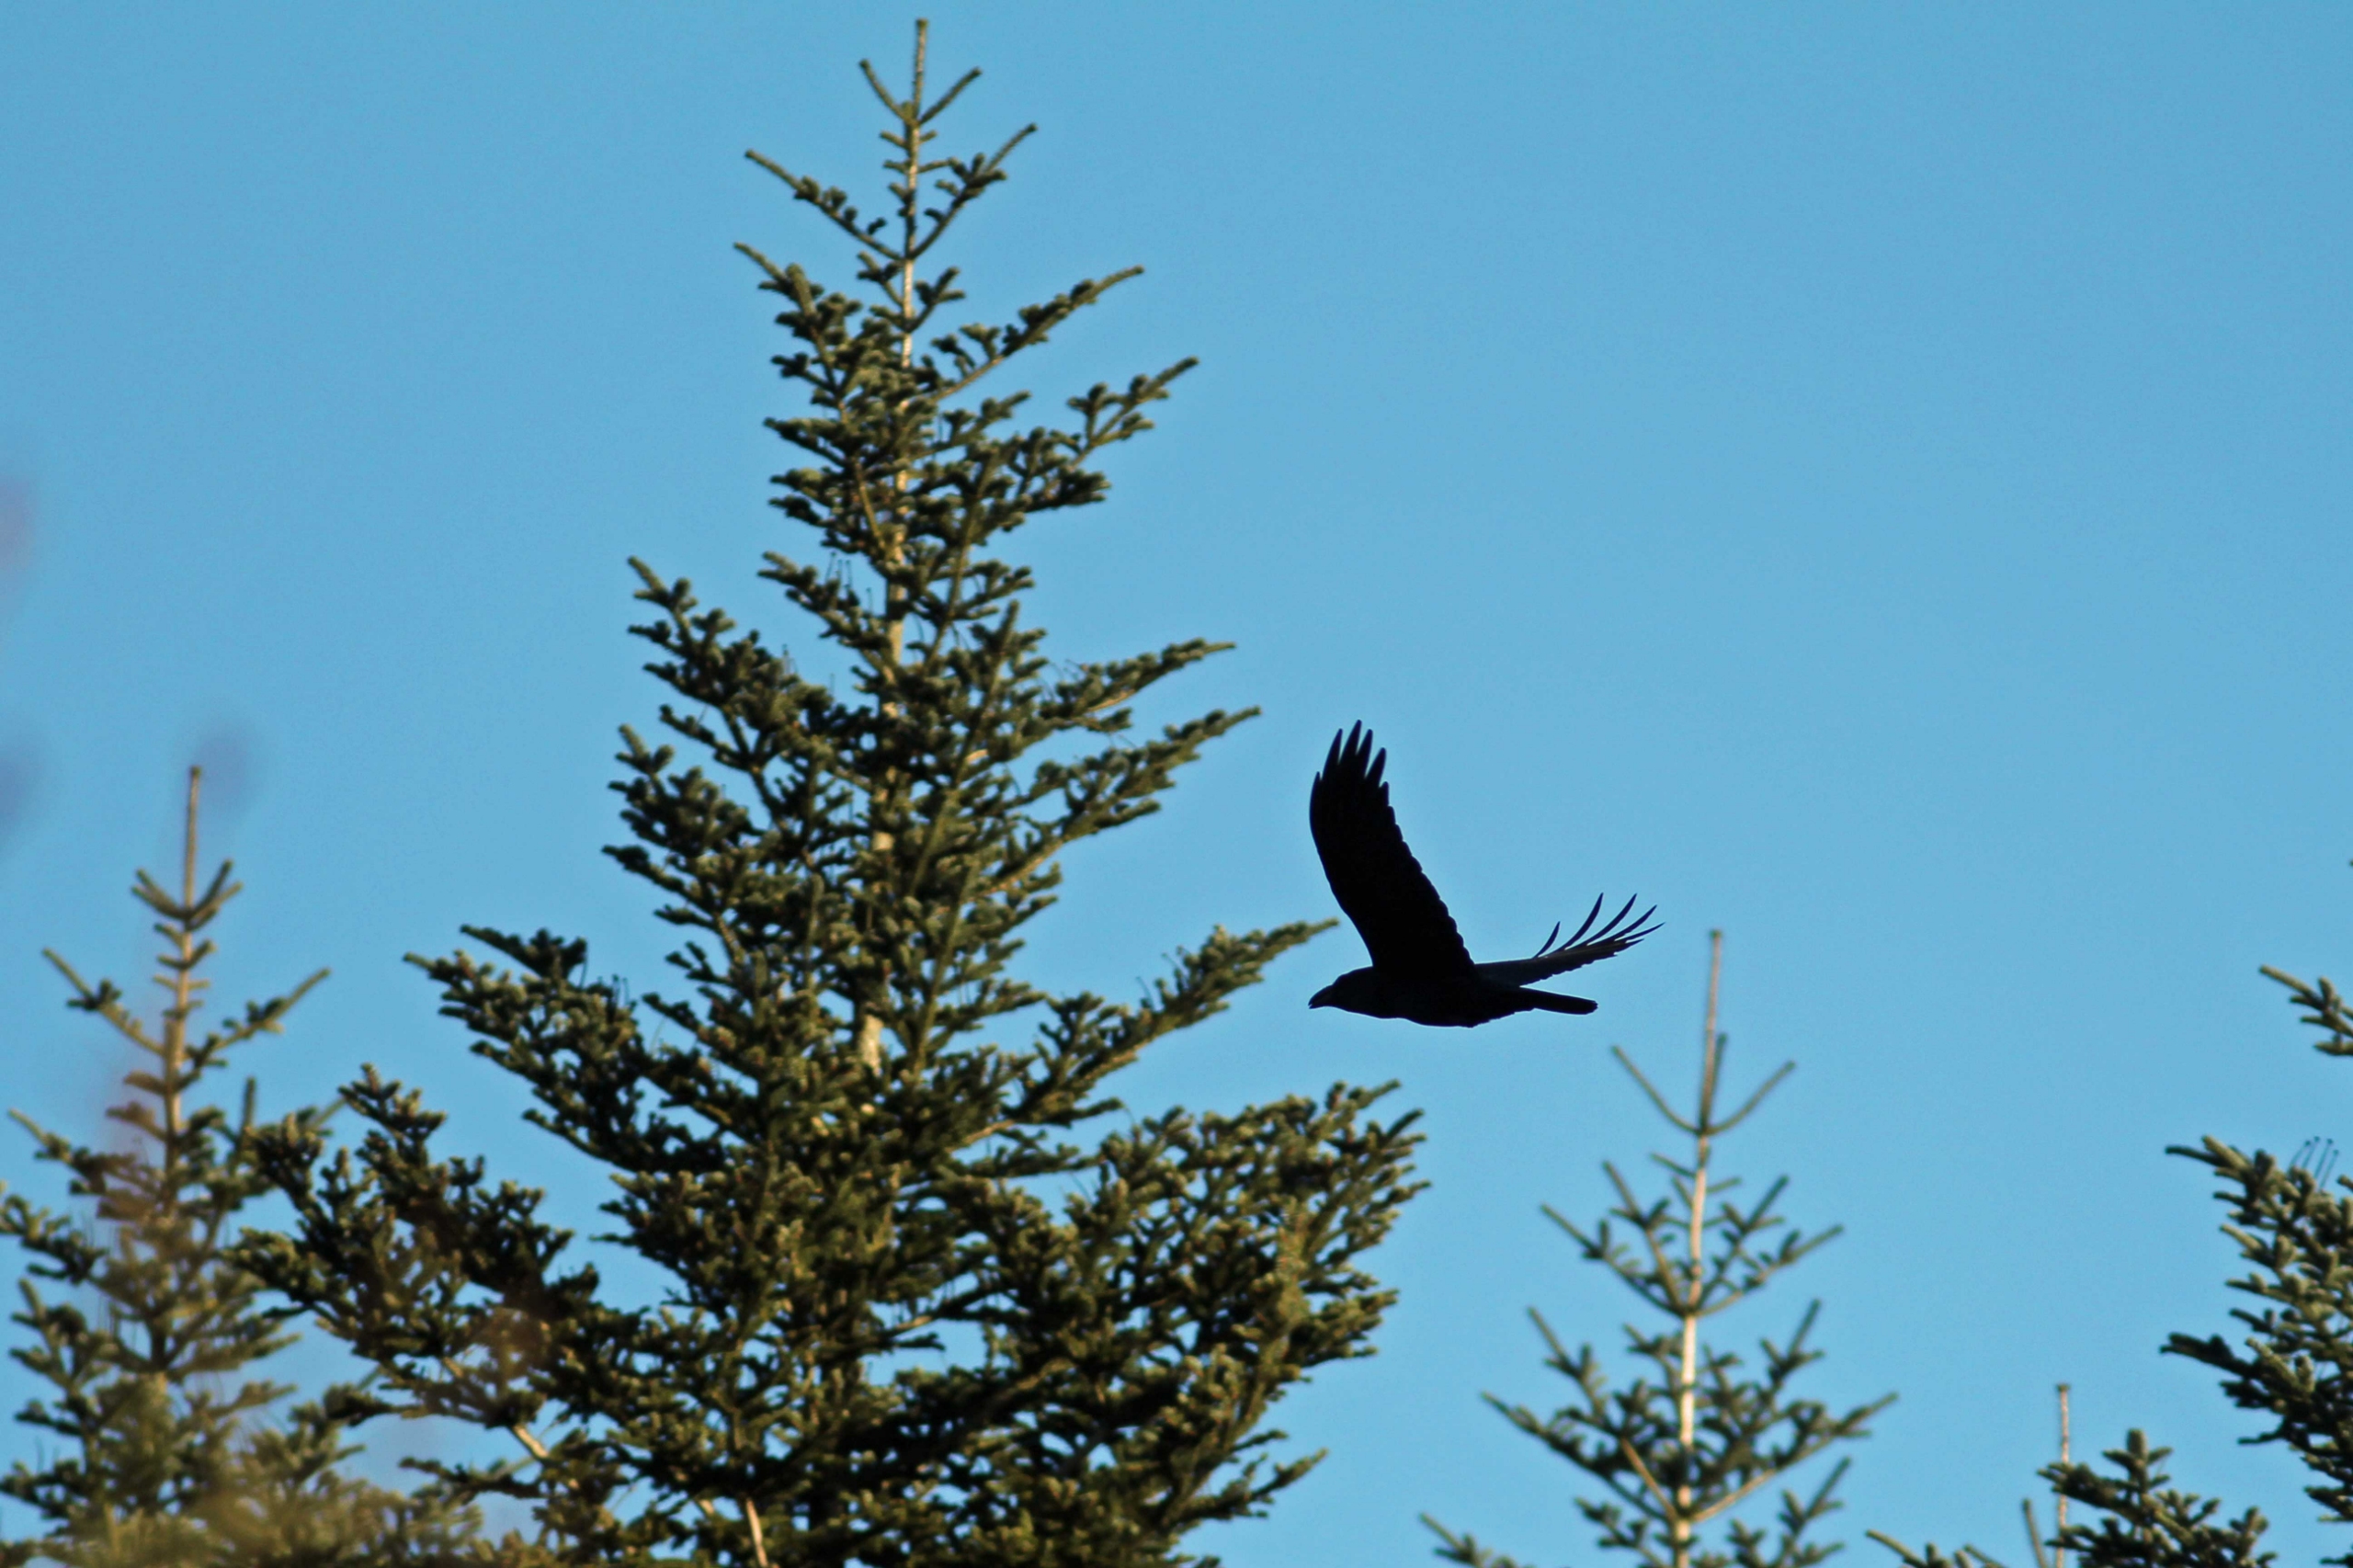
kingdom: Animalia
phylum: Chordata
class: Aves
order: Passeriformes
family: Corvidae
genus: Corvus
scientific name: Corvus corax
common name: Ravn
